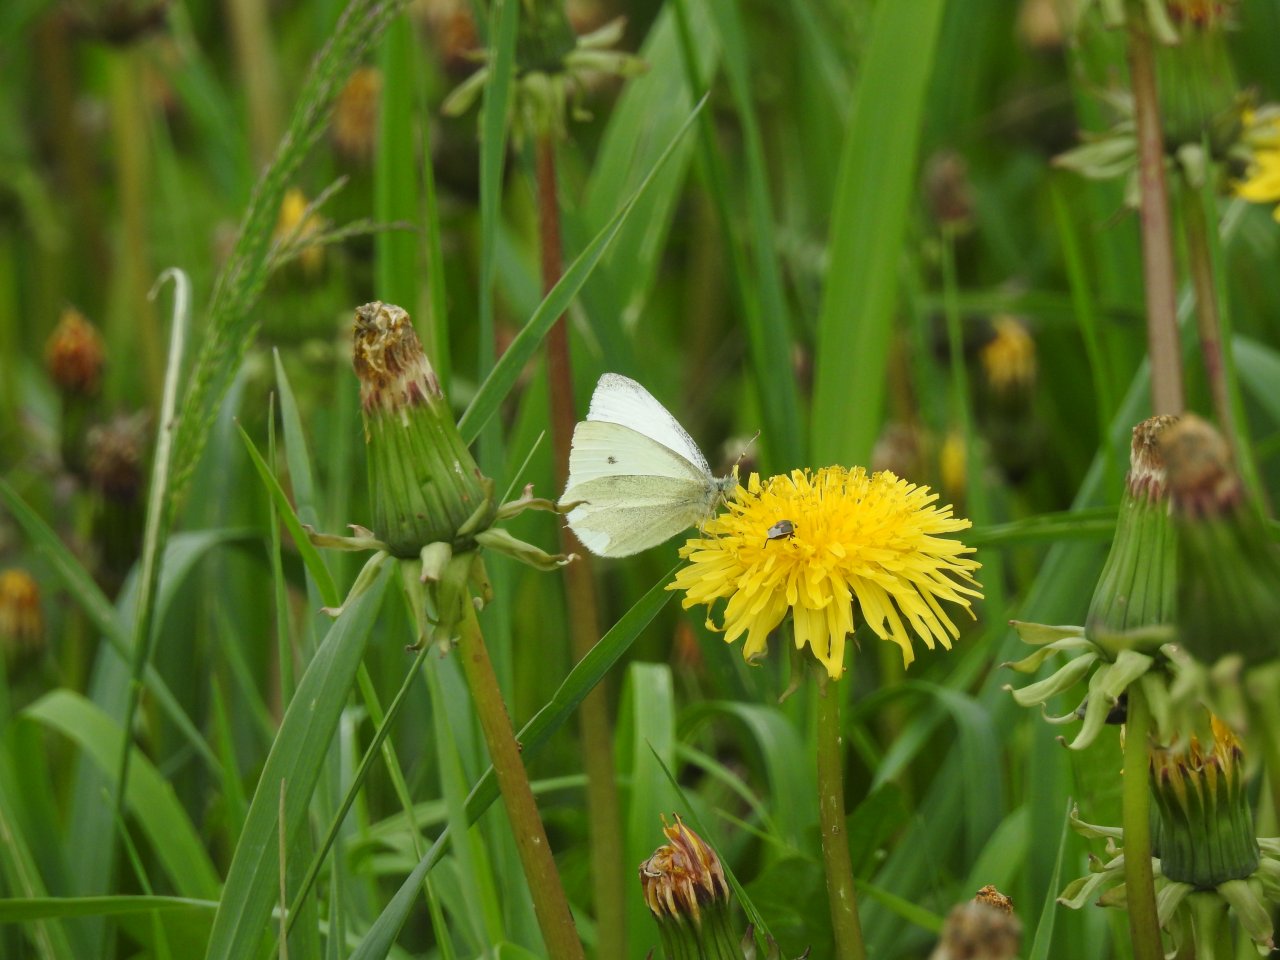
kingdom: Animalia
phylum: Arthropoda
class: Insecta
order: Lepidoptera
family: Pieridae
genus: Pieris
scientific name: Pieris rapae
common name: Cabbage White
